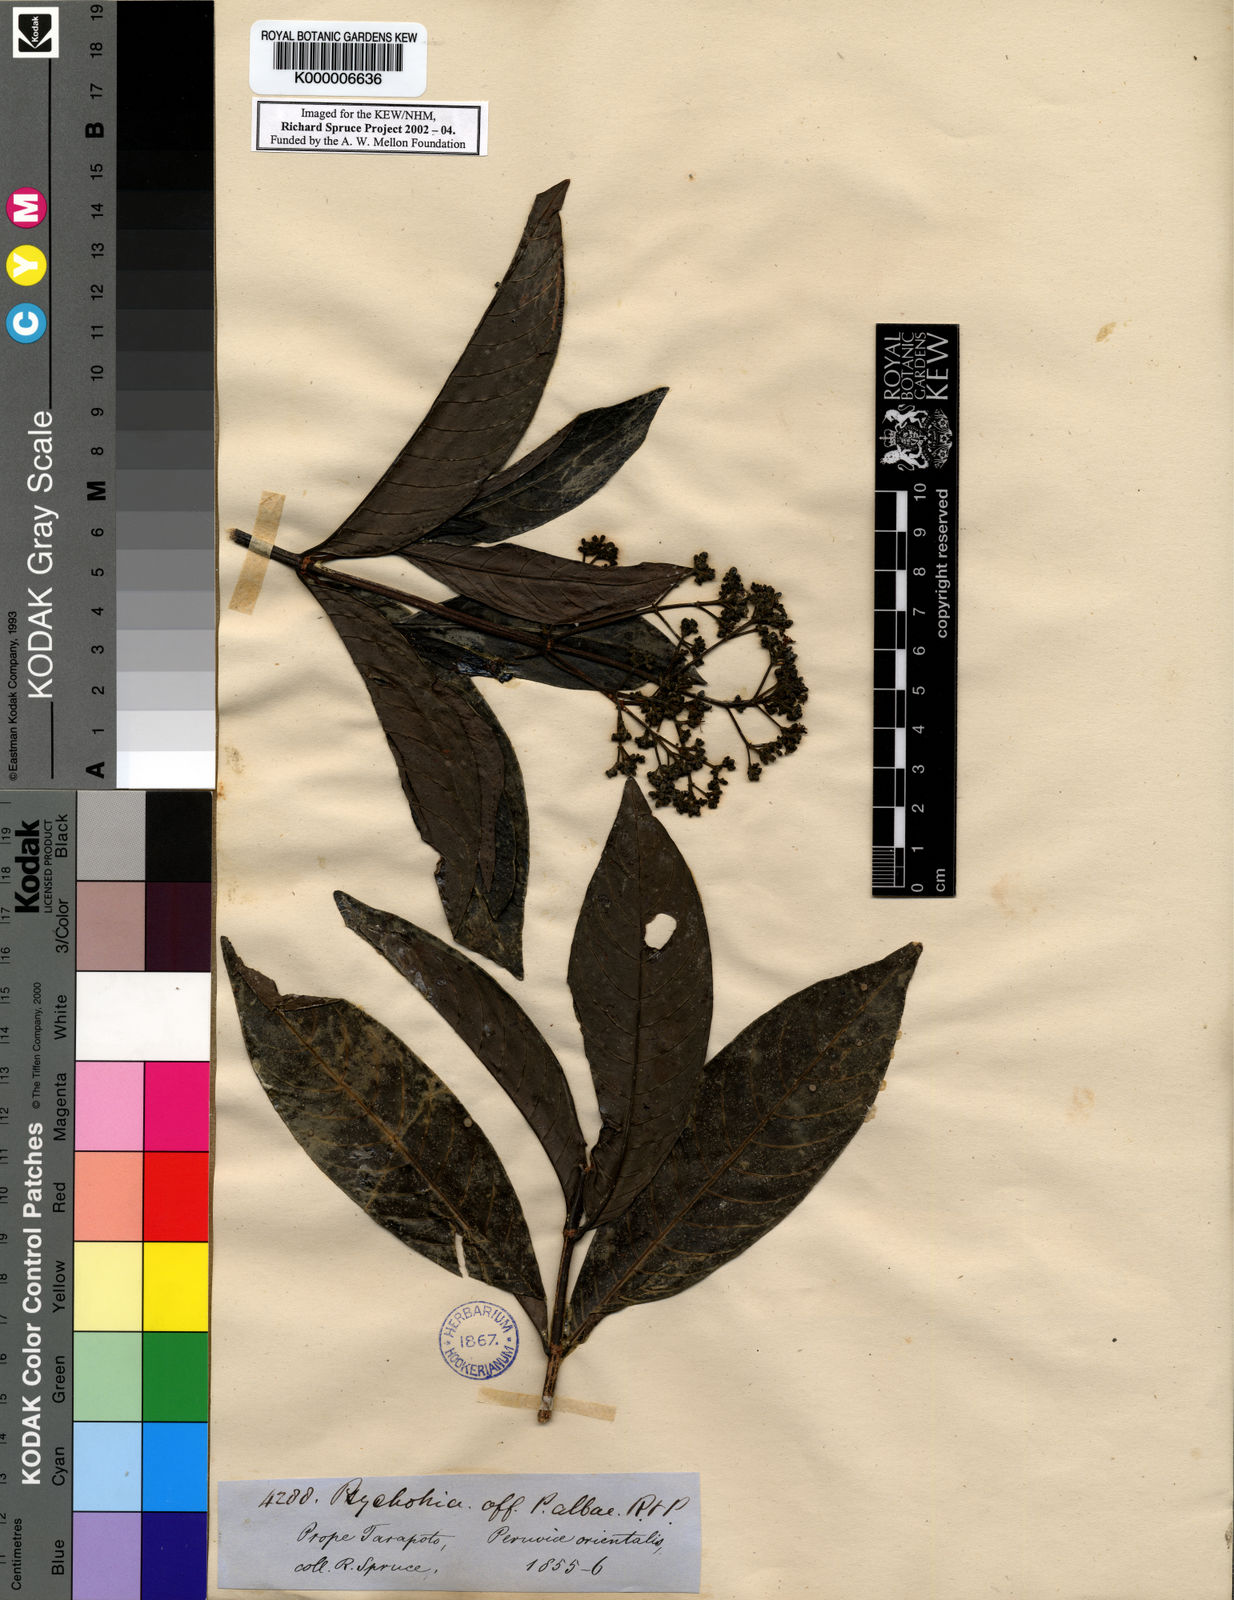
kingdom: Plantae
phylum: Tracheophyta
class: Magnoliopsida
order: Gentianales
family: Rubiaceae
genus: Psychotria
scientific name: Psychotria carthagenensis
